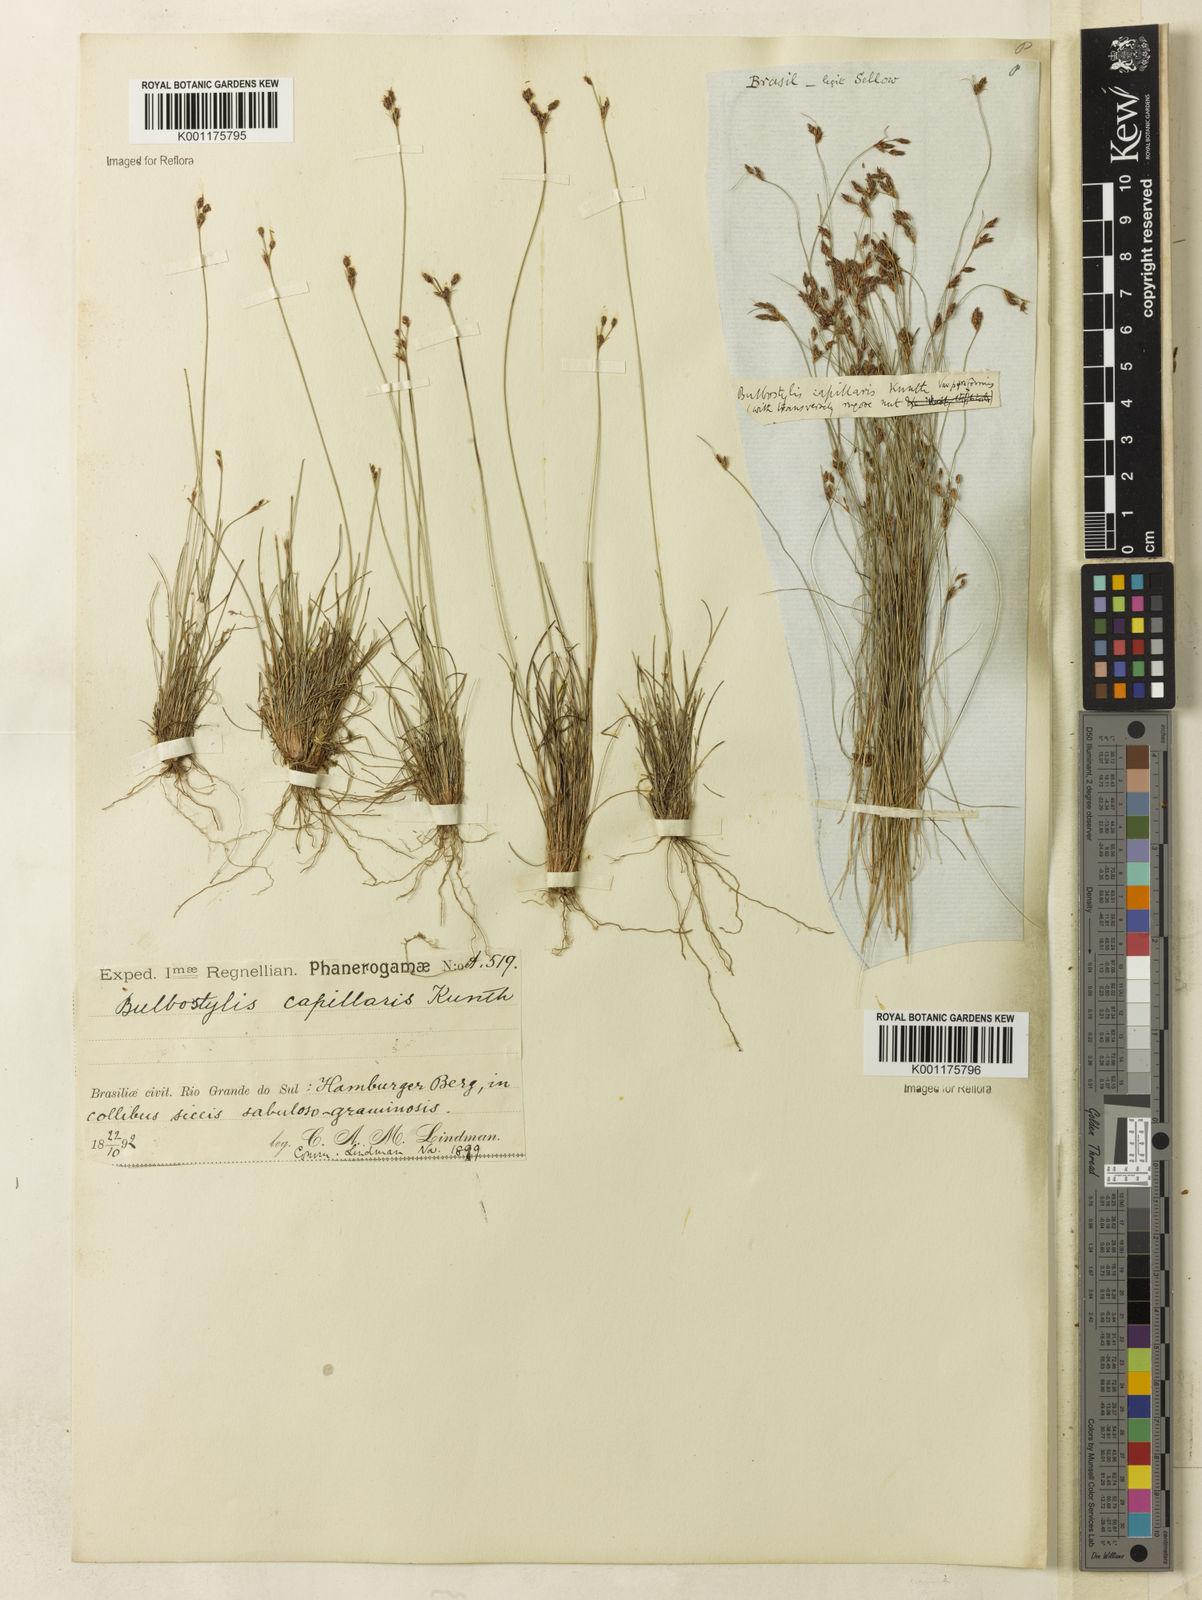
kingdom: Plantae
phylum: Tracheophyta
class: Liliopsida
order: Poales
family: Cyperaceae
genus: Bulbostylis
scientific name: Bulbostylis capillaris
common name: Densetuft hairsedge
